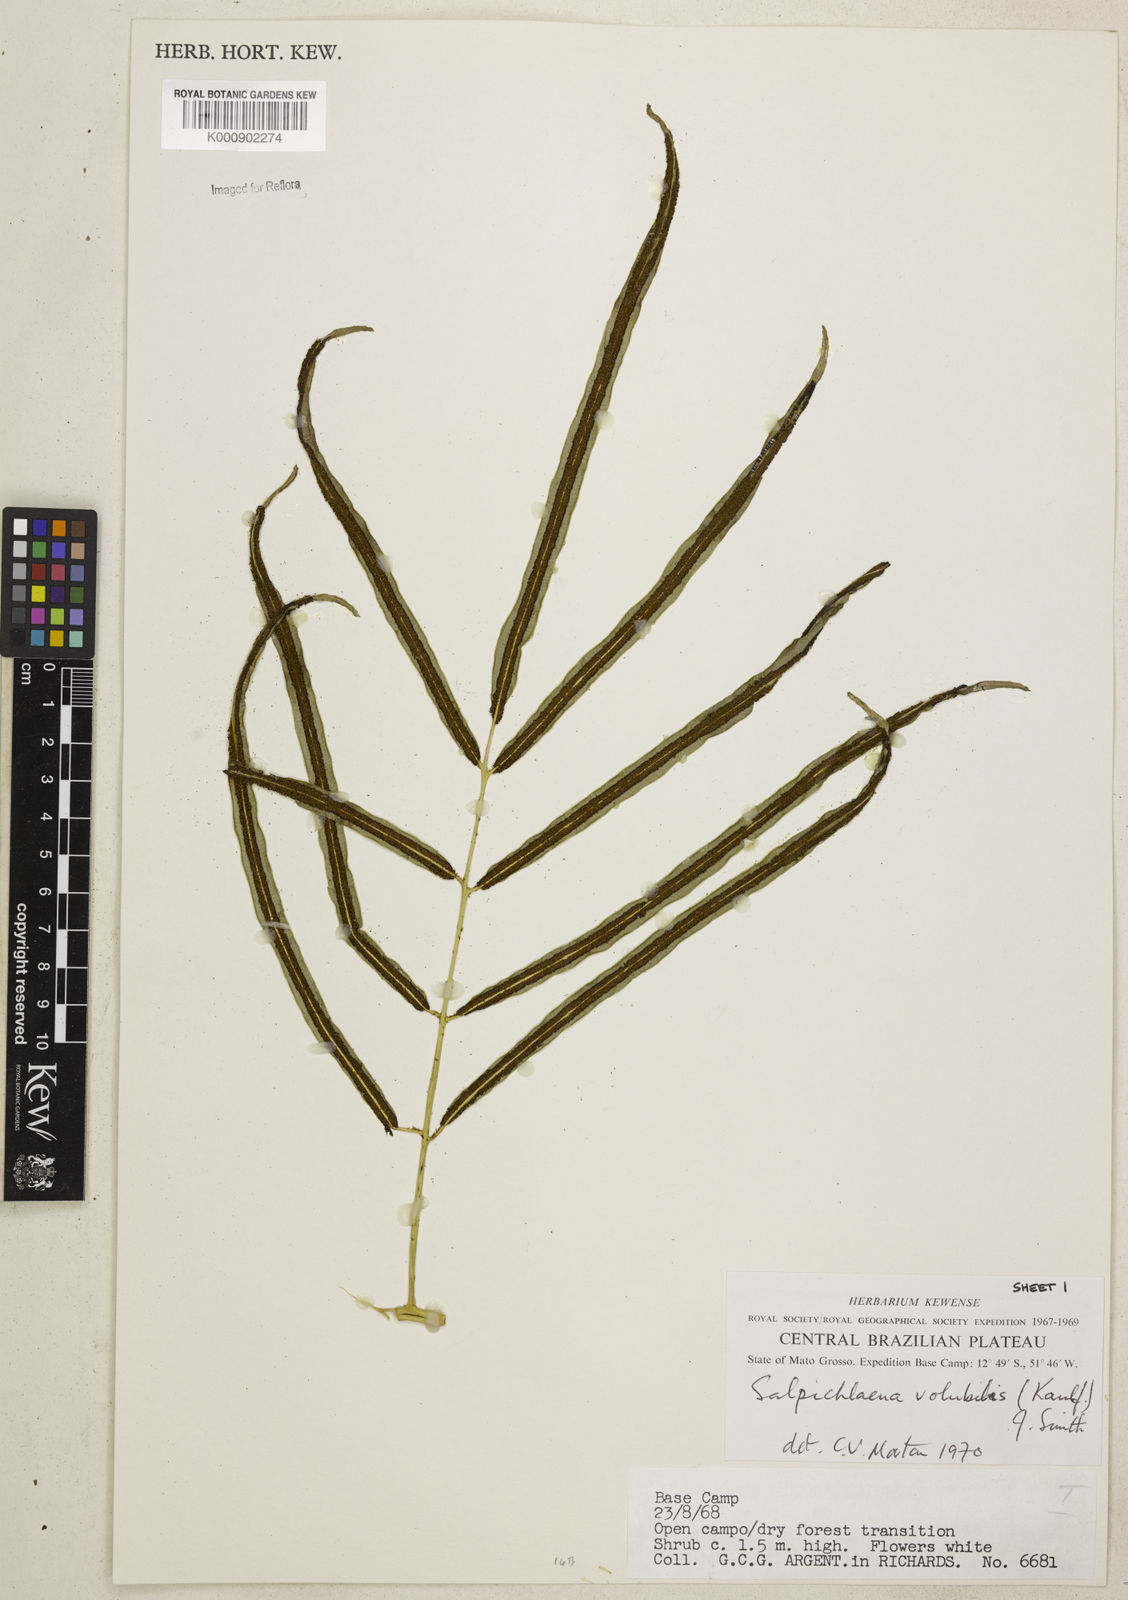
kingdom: Plantae
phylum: Tracheophyta
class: Polypodiopsida
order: Polypodiales
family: Blechnaceae
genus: Salpichlaena
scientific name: Salpichlaena volubilis
